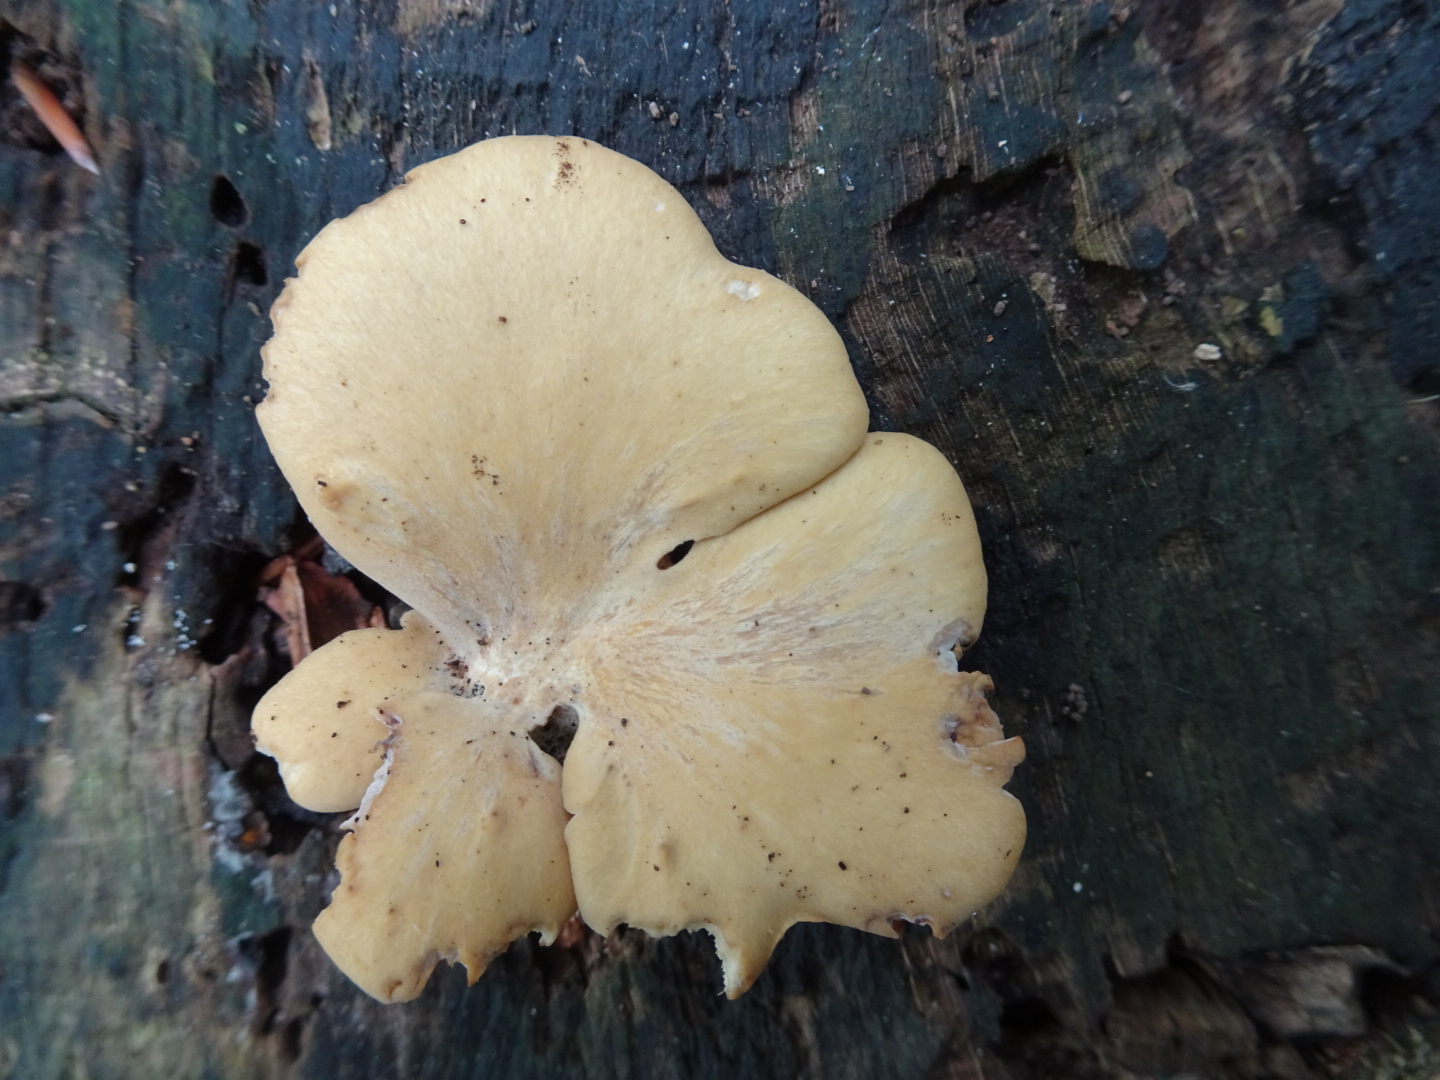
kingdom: Fungi
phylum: Basidiomycota
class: Agaricomycetes
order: Polyporales
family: Polyporaceae
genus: Cerioporus
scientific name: Cerioporus varius
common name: foranderlig stilkporesvamp
